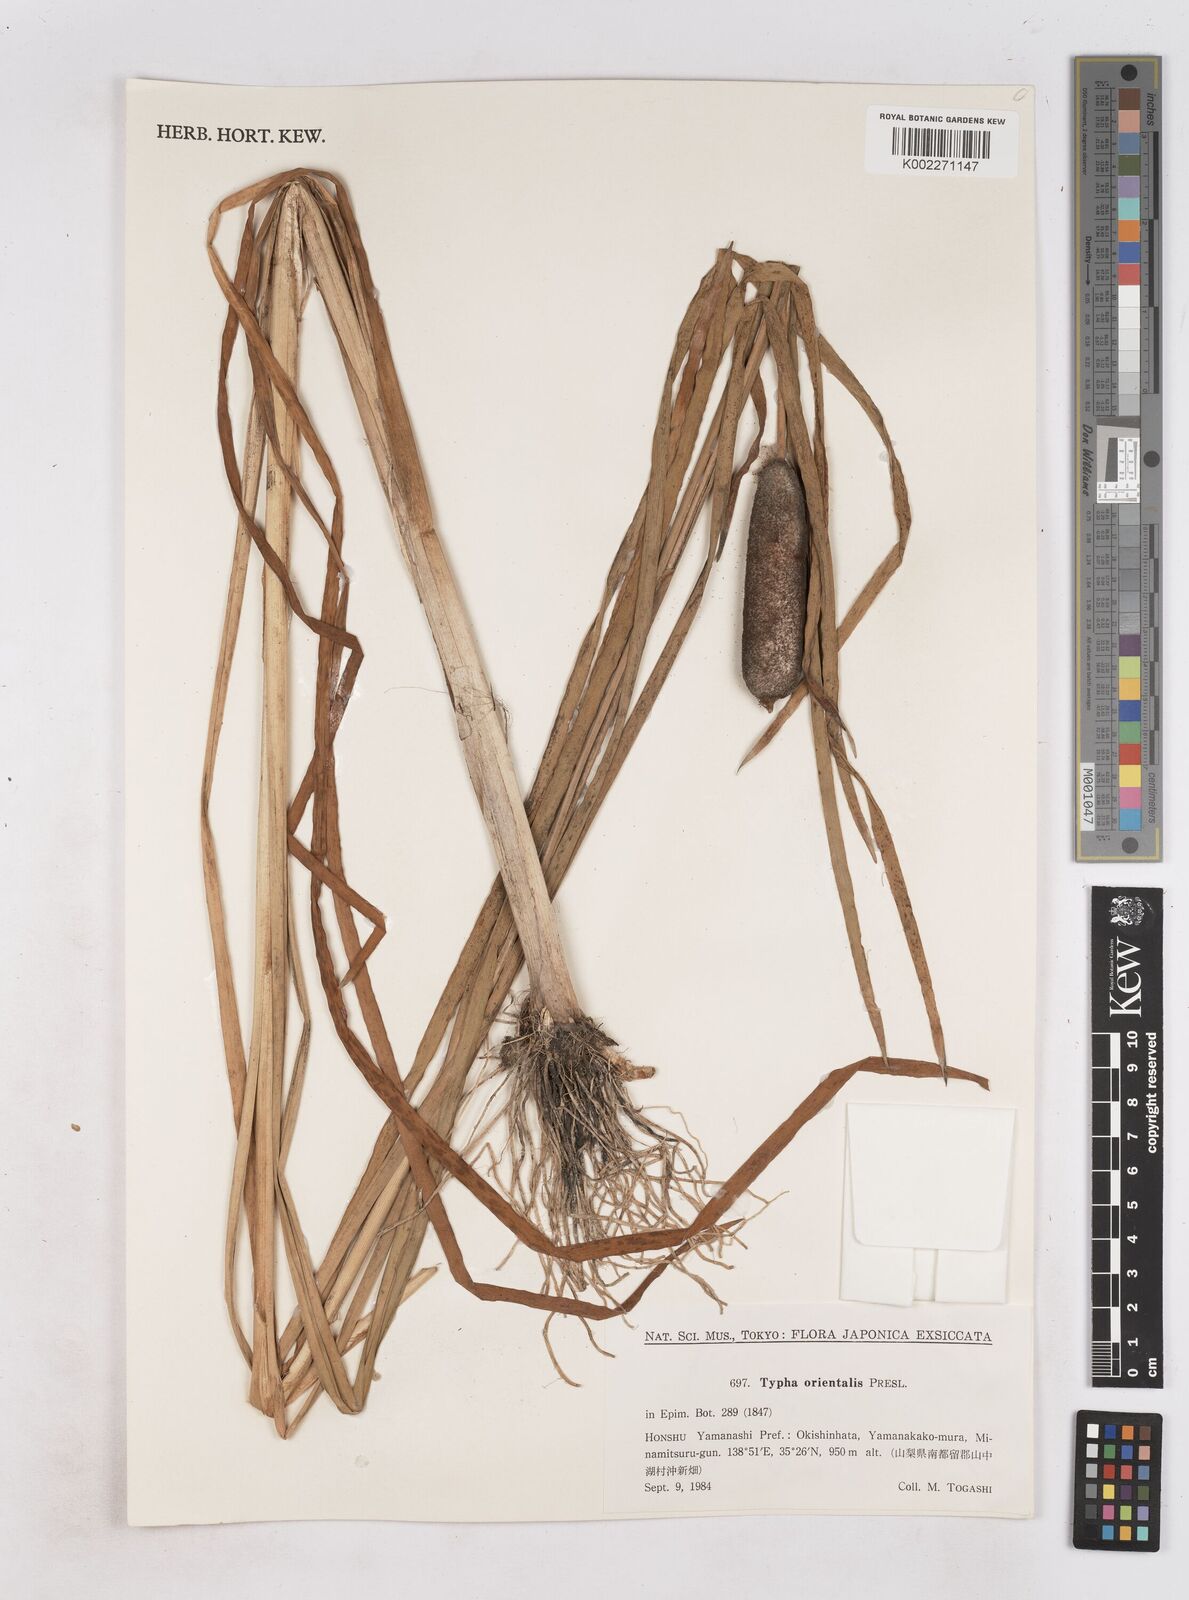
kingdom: Plantae
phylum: Tracheophyta
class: Liliopsida
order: Poales
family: Typhaceae
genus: Typha
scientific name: Typha
